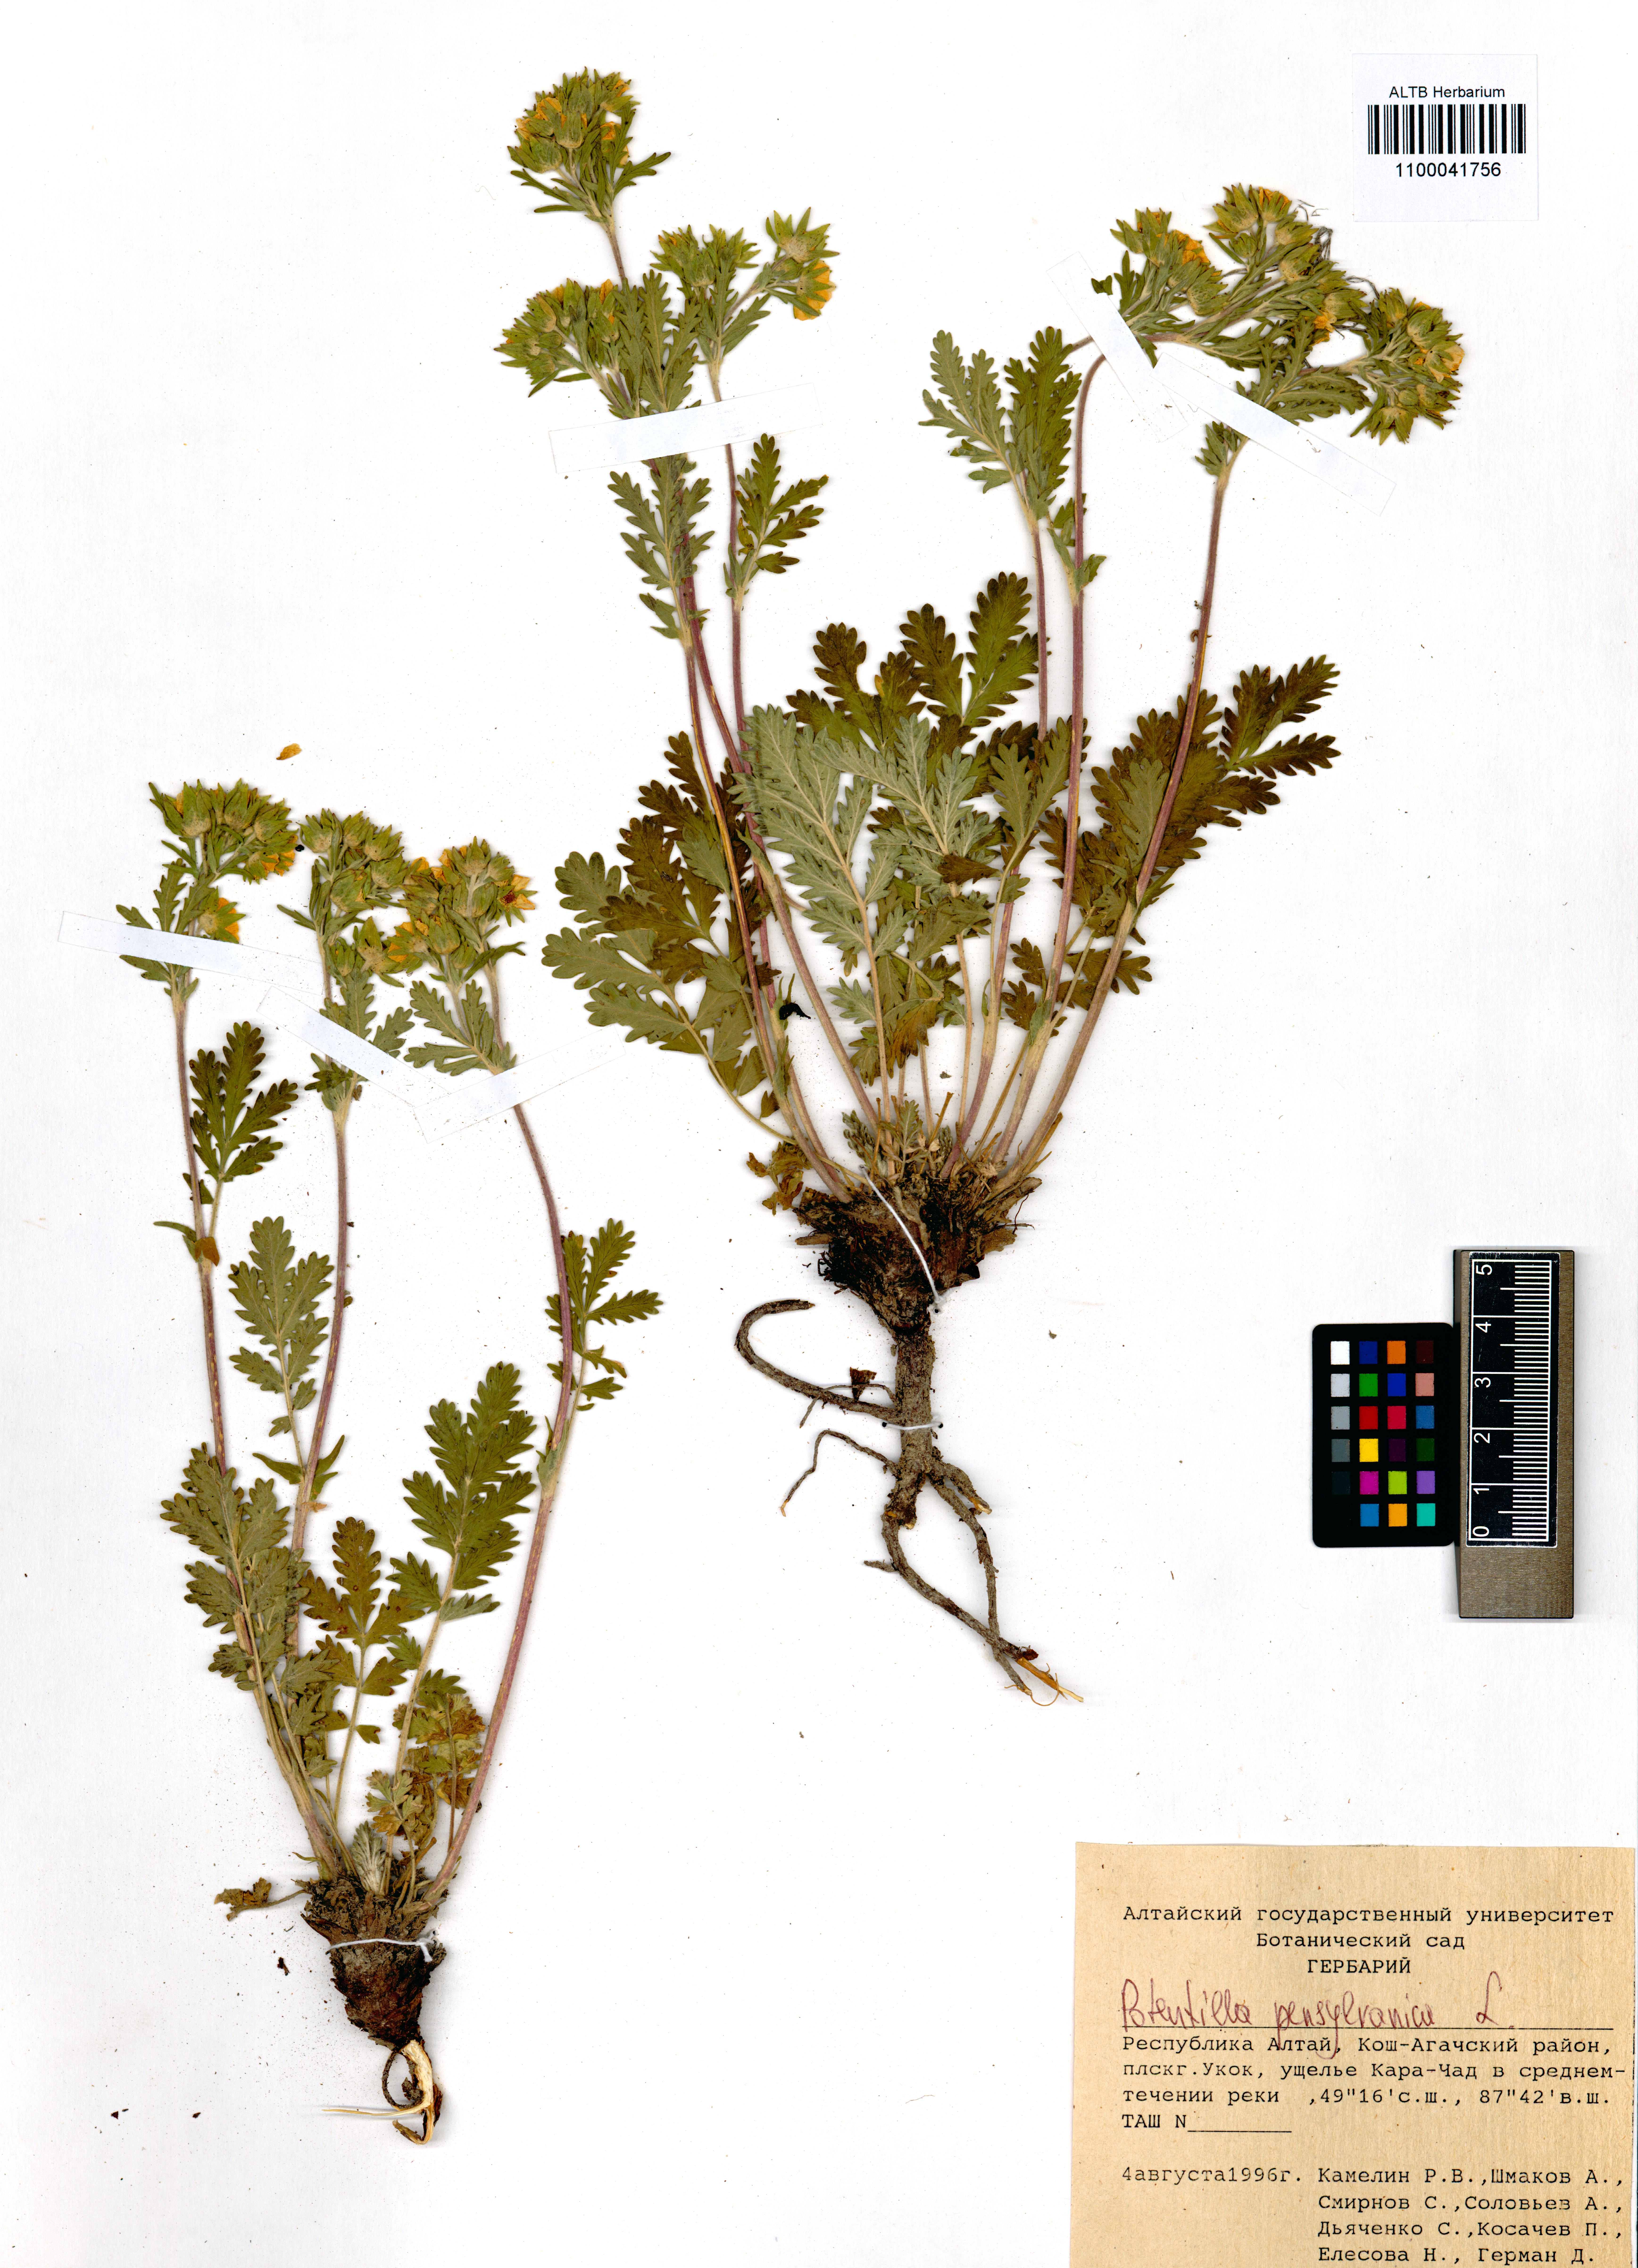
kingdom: Plantae
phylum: Tracheophyta
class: Magnoliopsida
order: Rosales
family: Rosaceae
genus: Potentilla
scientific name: Potentilla pensylvanica
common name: Pennsylvania cinquefoil
